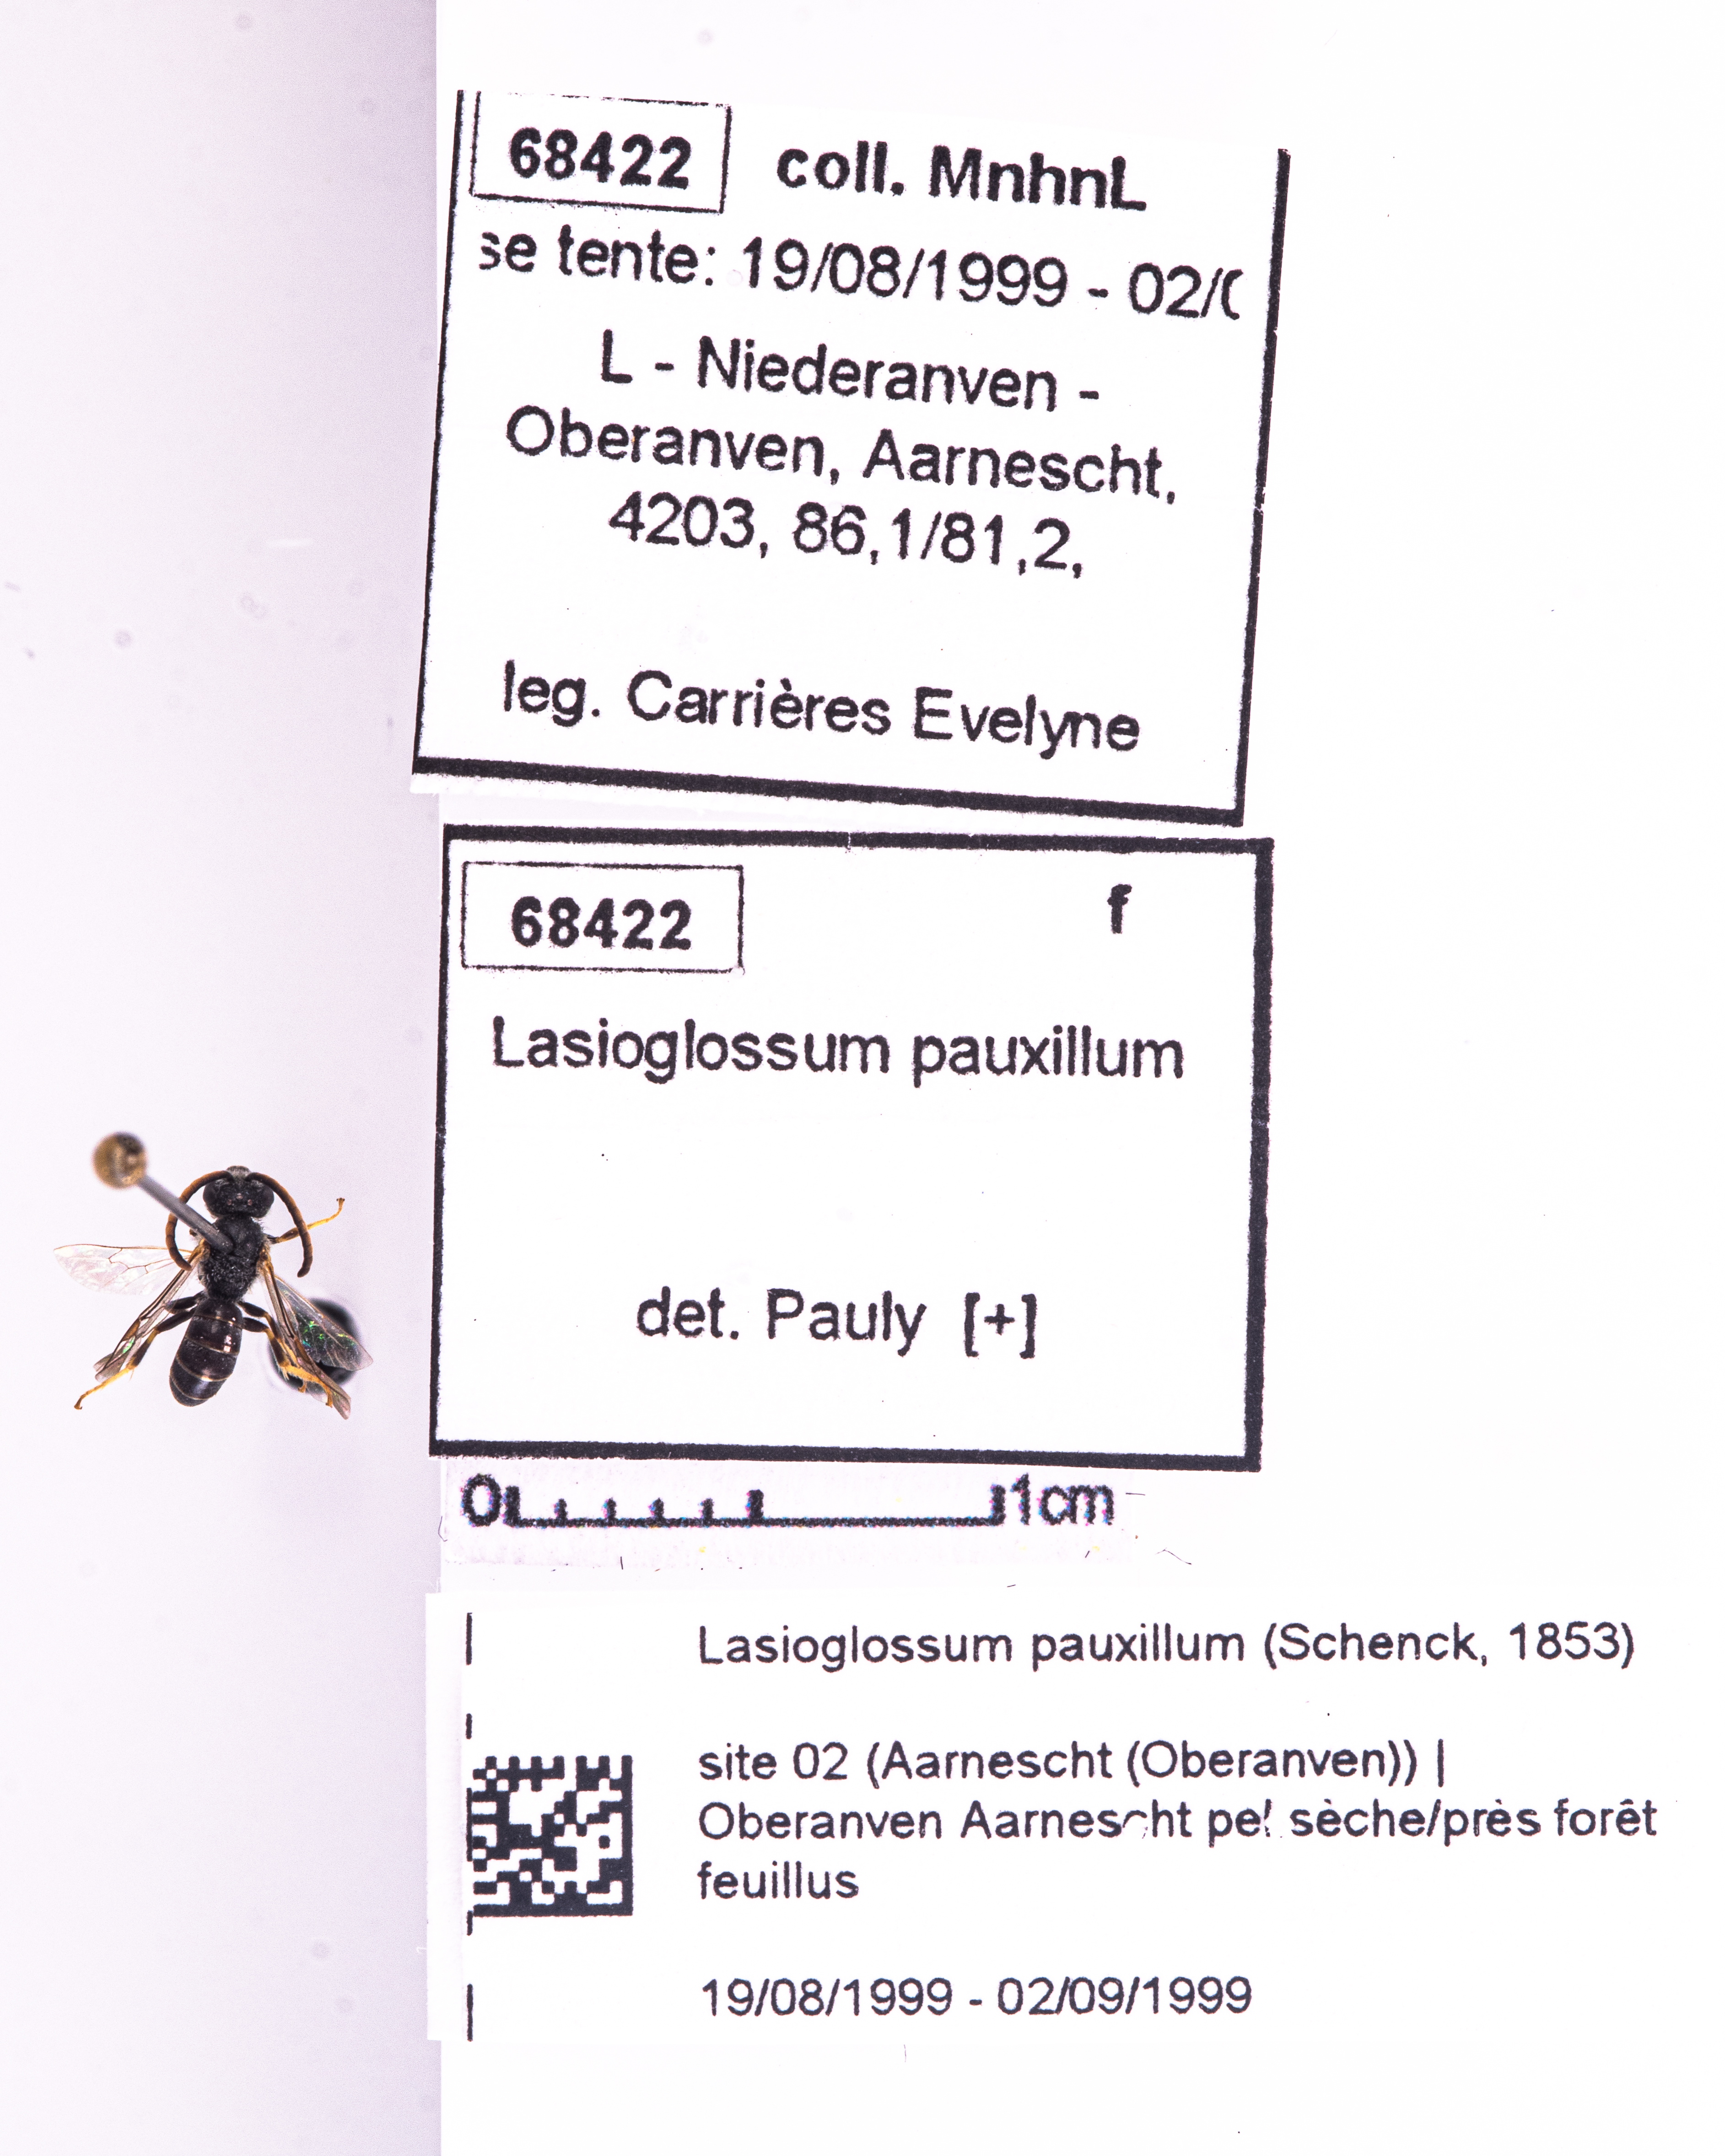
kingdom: Animalia
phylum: Arthropoda
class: Insecta
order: Hymenoptera
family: Halictidae
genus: Lasioglossum
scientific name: Lasioglossum pauxillum
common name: Lobe-spurred furrow bee
